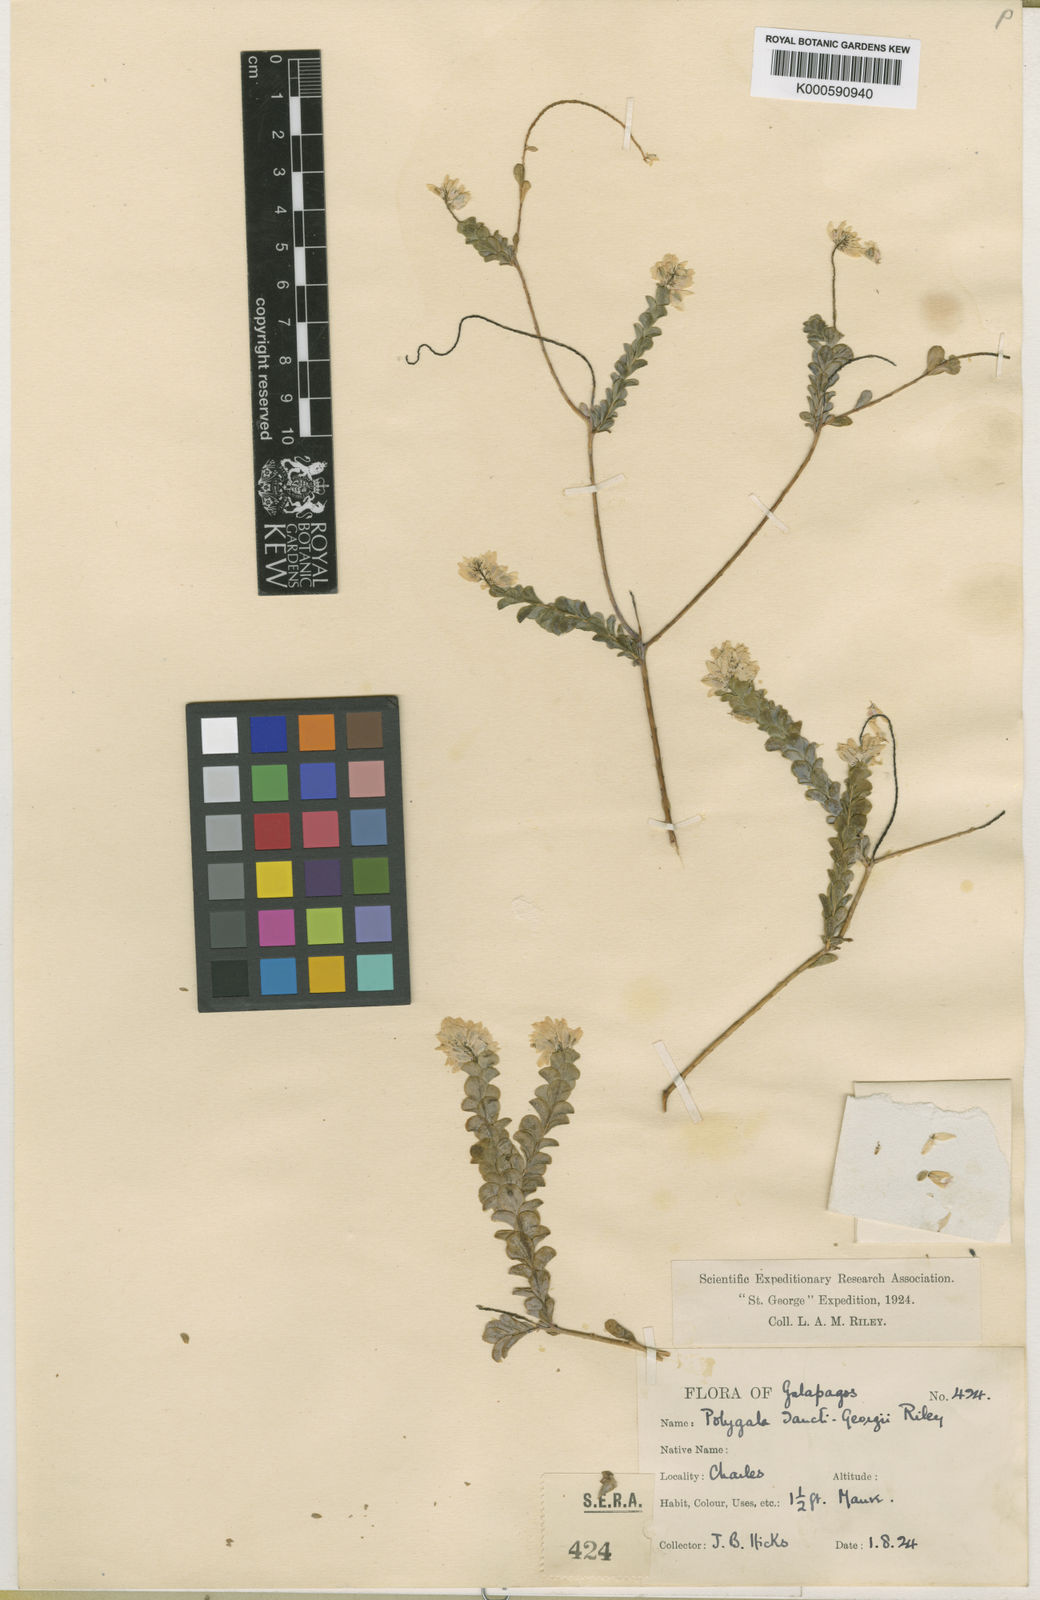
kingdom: Plantae
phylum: Tracheophyta
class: Magnoliopsida
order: Fabales
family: Polygalaceae
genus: Polygala
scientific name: Polygala sancti-georgii
